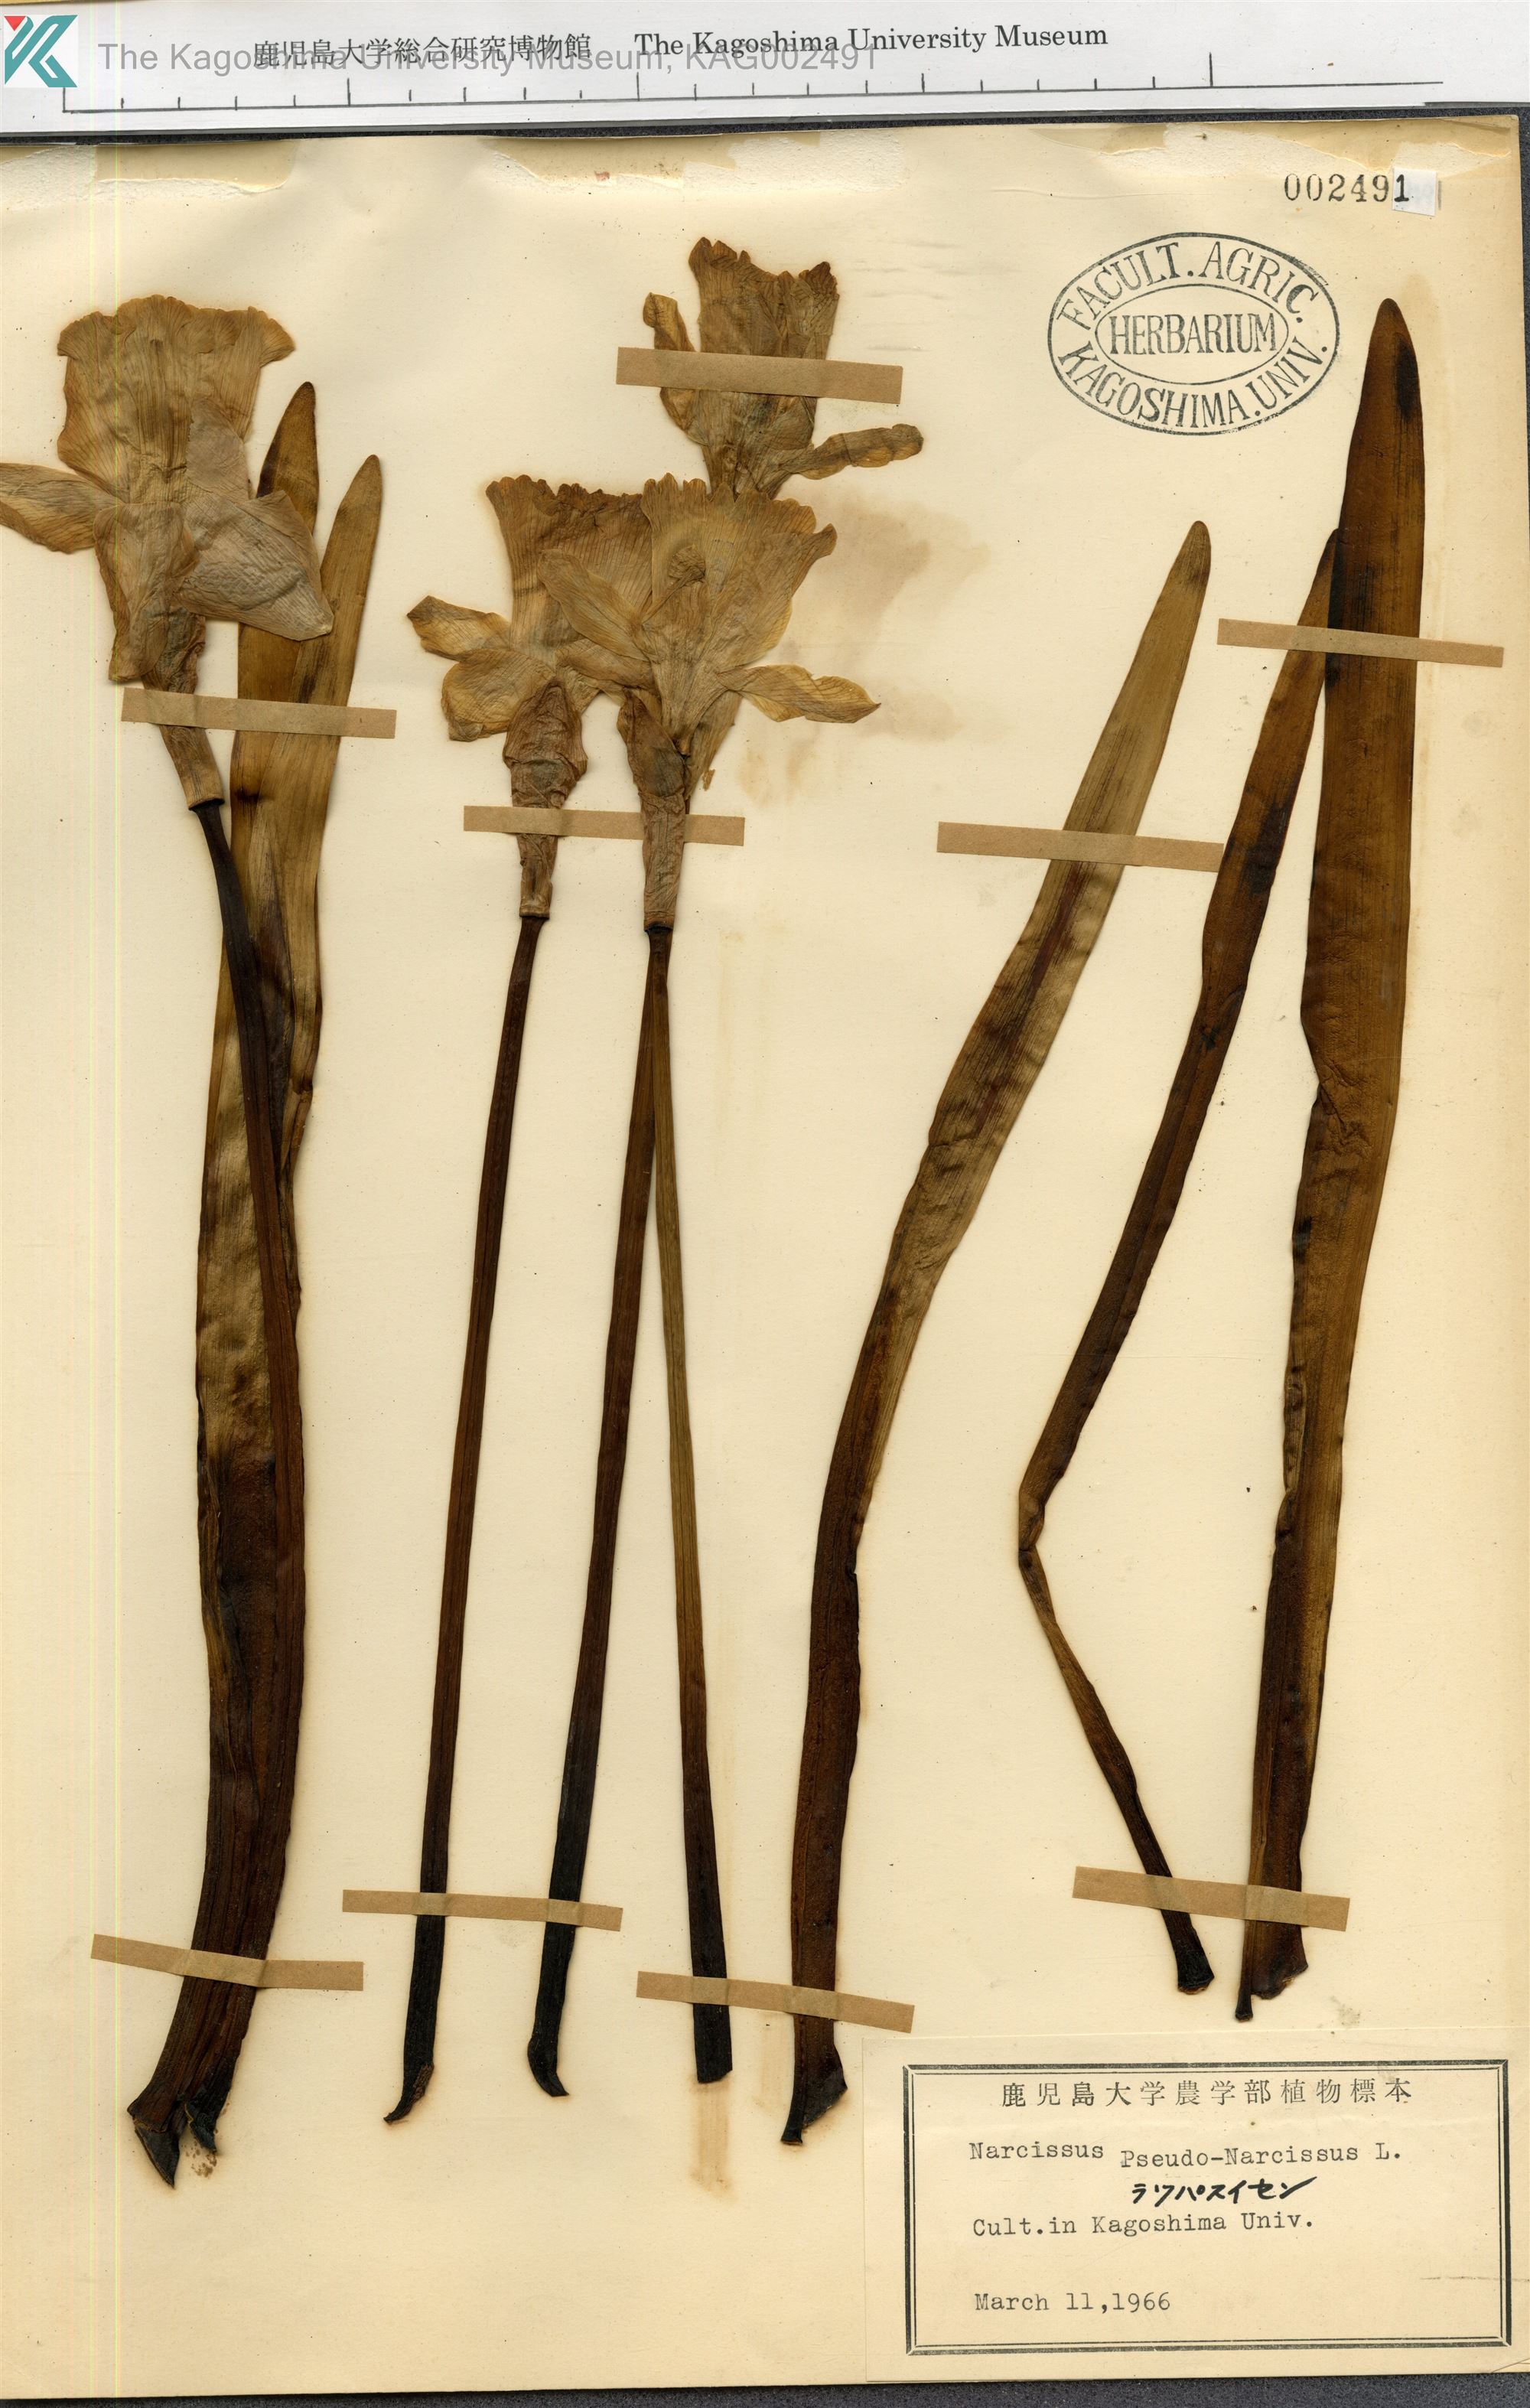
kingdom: Plantae
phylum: Tracheophyta
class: Liliopsida
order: Asparagales
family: Amaryllidaceae
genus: Narcissus
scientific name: Narcissus pseudonarcissus
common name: Daffodil
